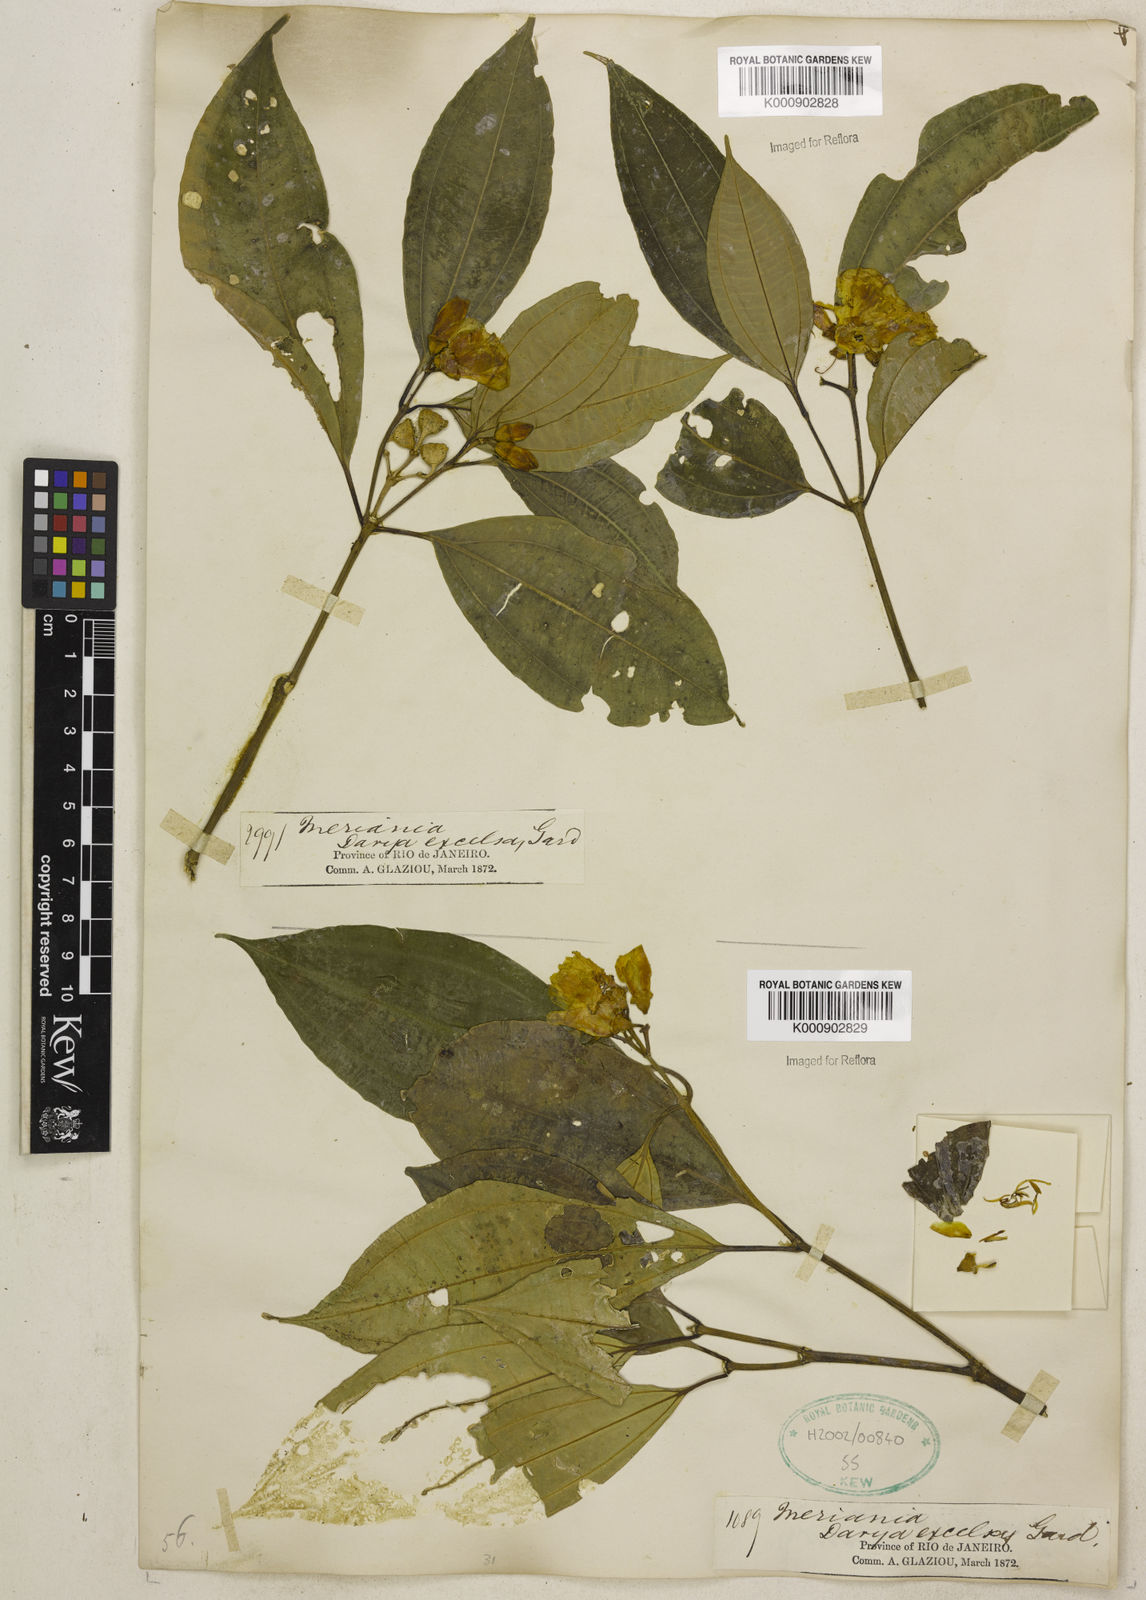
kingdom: Plantae
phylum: Tracheophyta
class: Magnoliopsida
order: Myrtales
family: Melastomataceae
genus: Meriania
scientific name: Meriania excelsa
